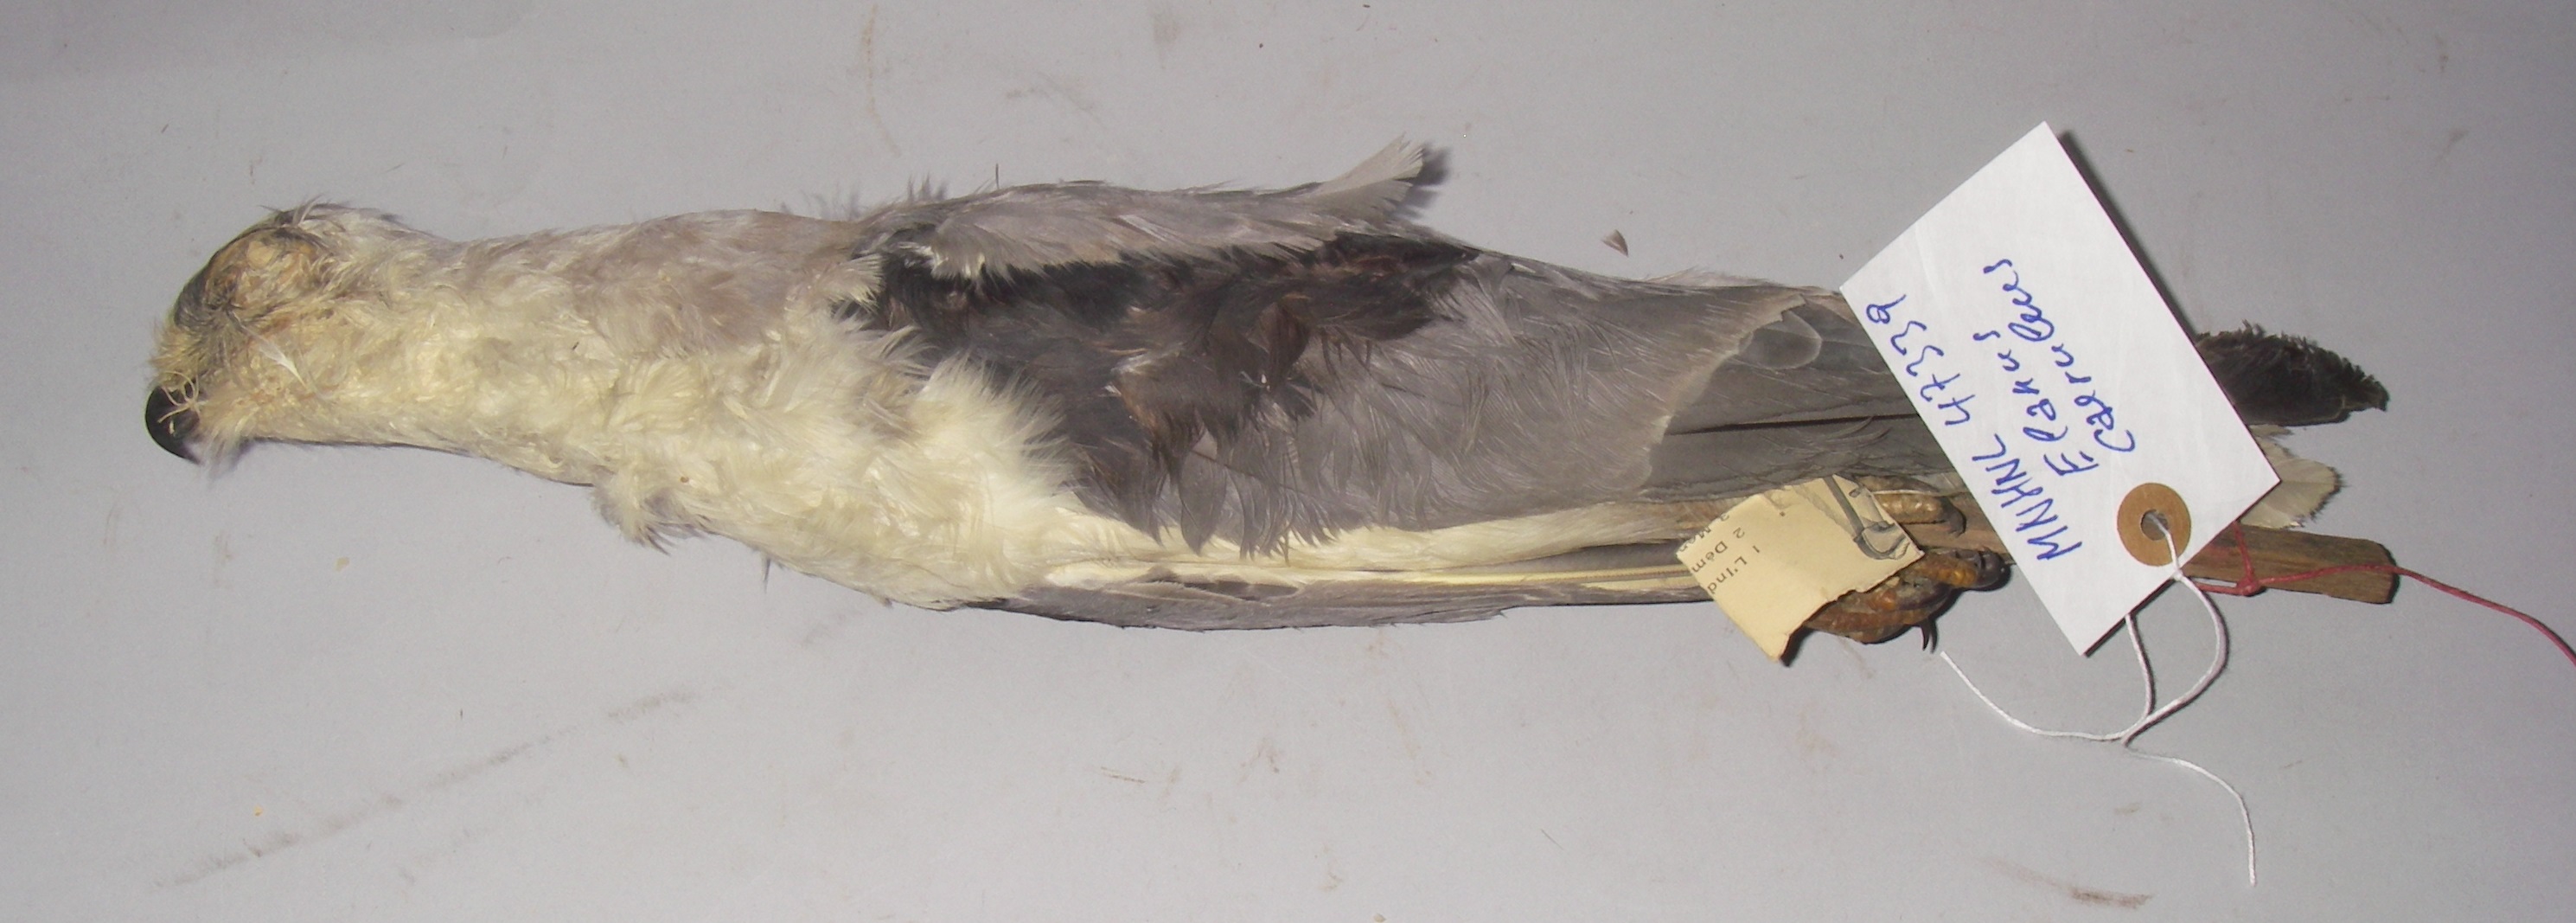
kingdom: Animalia
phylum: Chordata
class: Aves
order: Accipitriformes
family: Accipitridae
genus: Elanus
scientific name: Elanus caeruleus
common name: Black-winged kite
